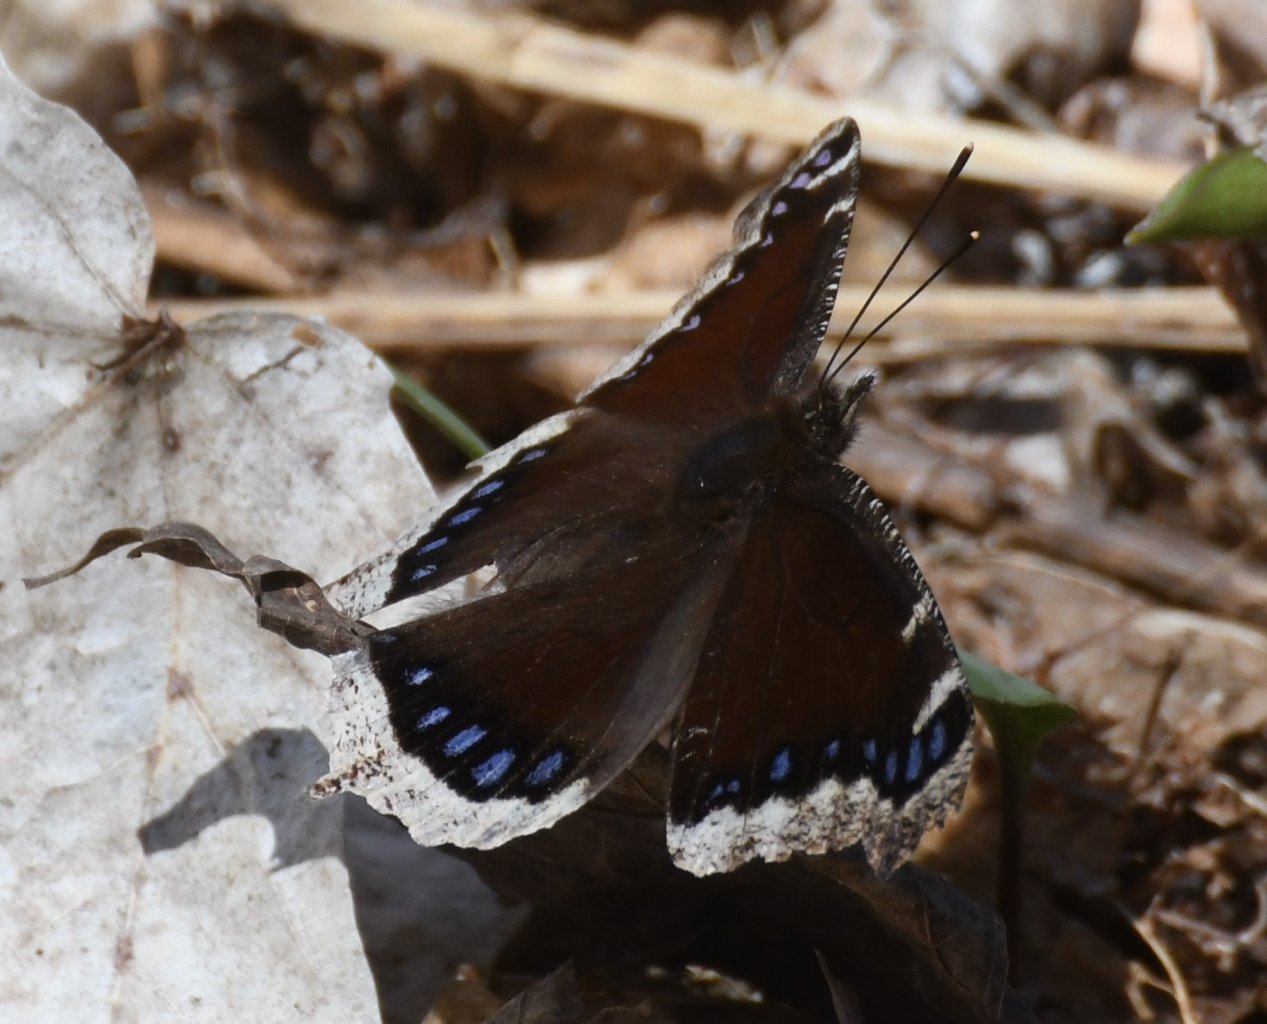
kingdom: Animalia
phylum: Arthropoda
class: Insecta
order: Lepidoptera
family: Nymphalidae
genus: Nymphalis
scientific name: Nymphalis antiopa
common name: Mourning Cloak
